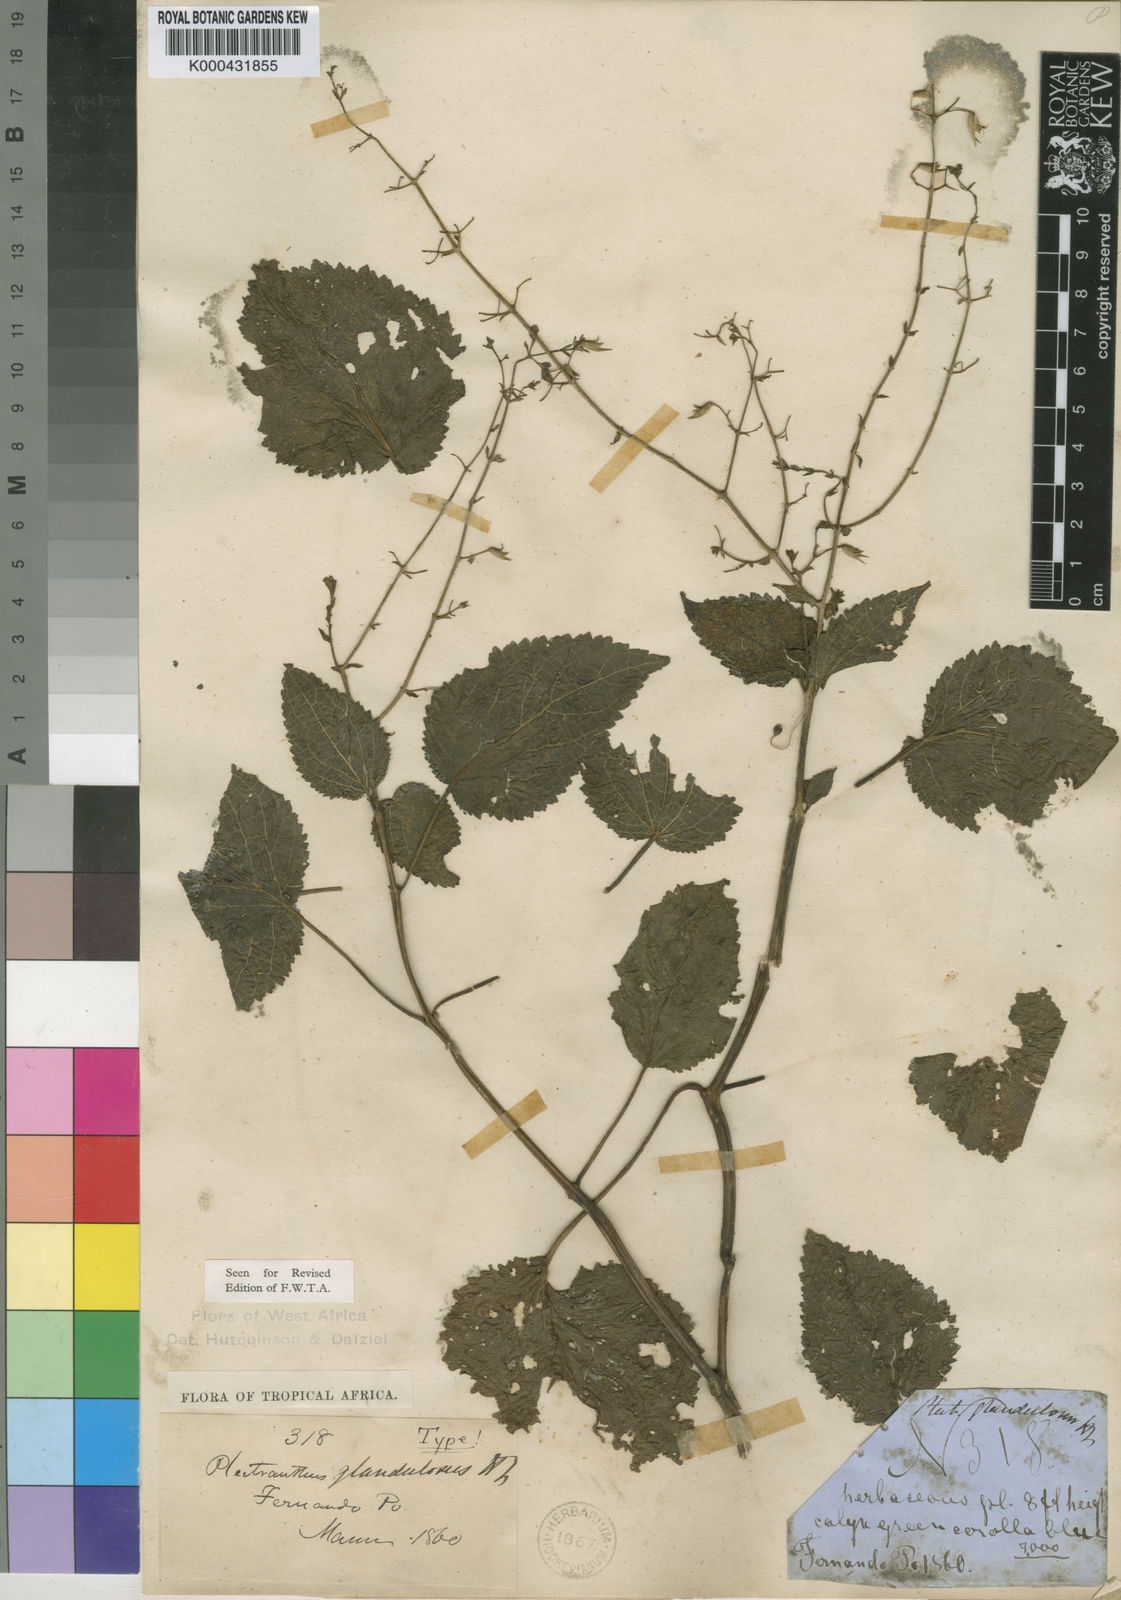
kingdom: Plantae
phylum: Tracheophyta
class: Magnoliopsida
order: Lamiales
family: Lamiaceae
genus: Equilabium
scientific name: Equilabium glandulosum
